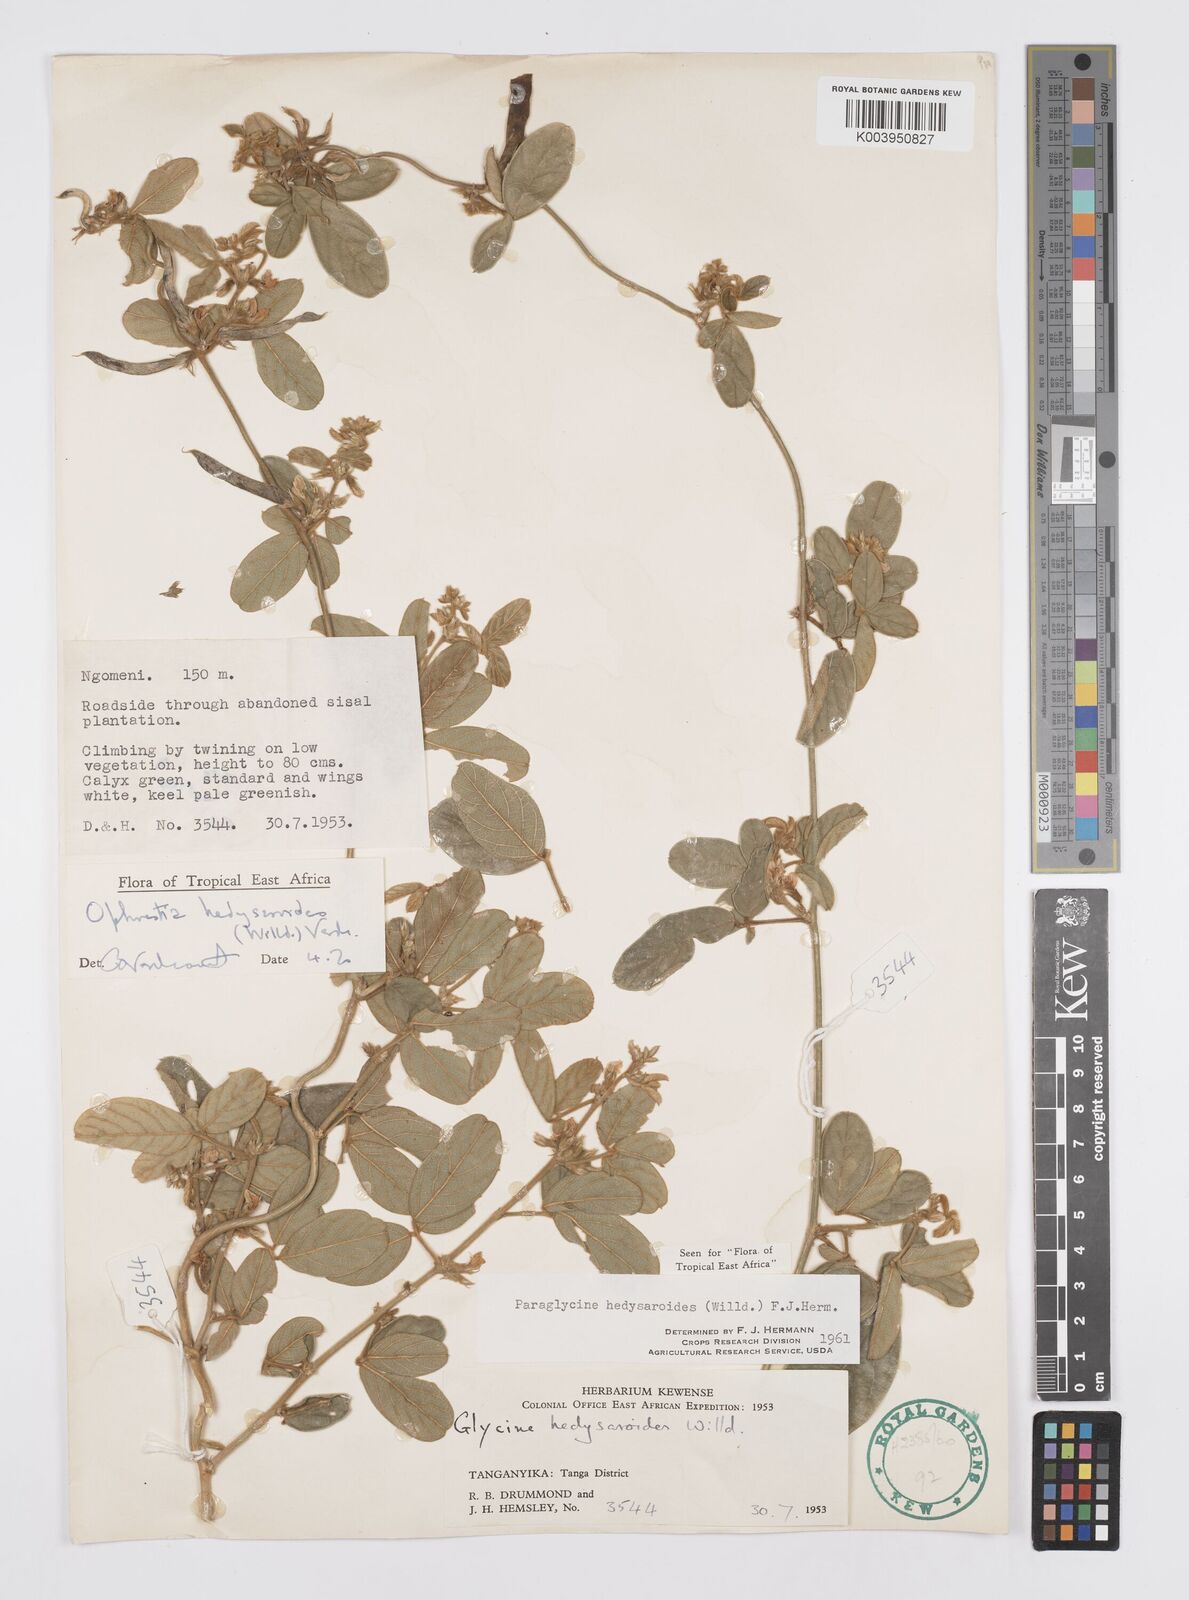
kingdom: Plantae
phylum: Tracheophyta
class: Magnoliopsida
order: Fabales
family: Fabaceae
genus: Ophrestia
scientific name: Ophrestia hedysaroides
